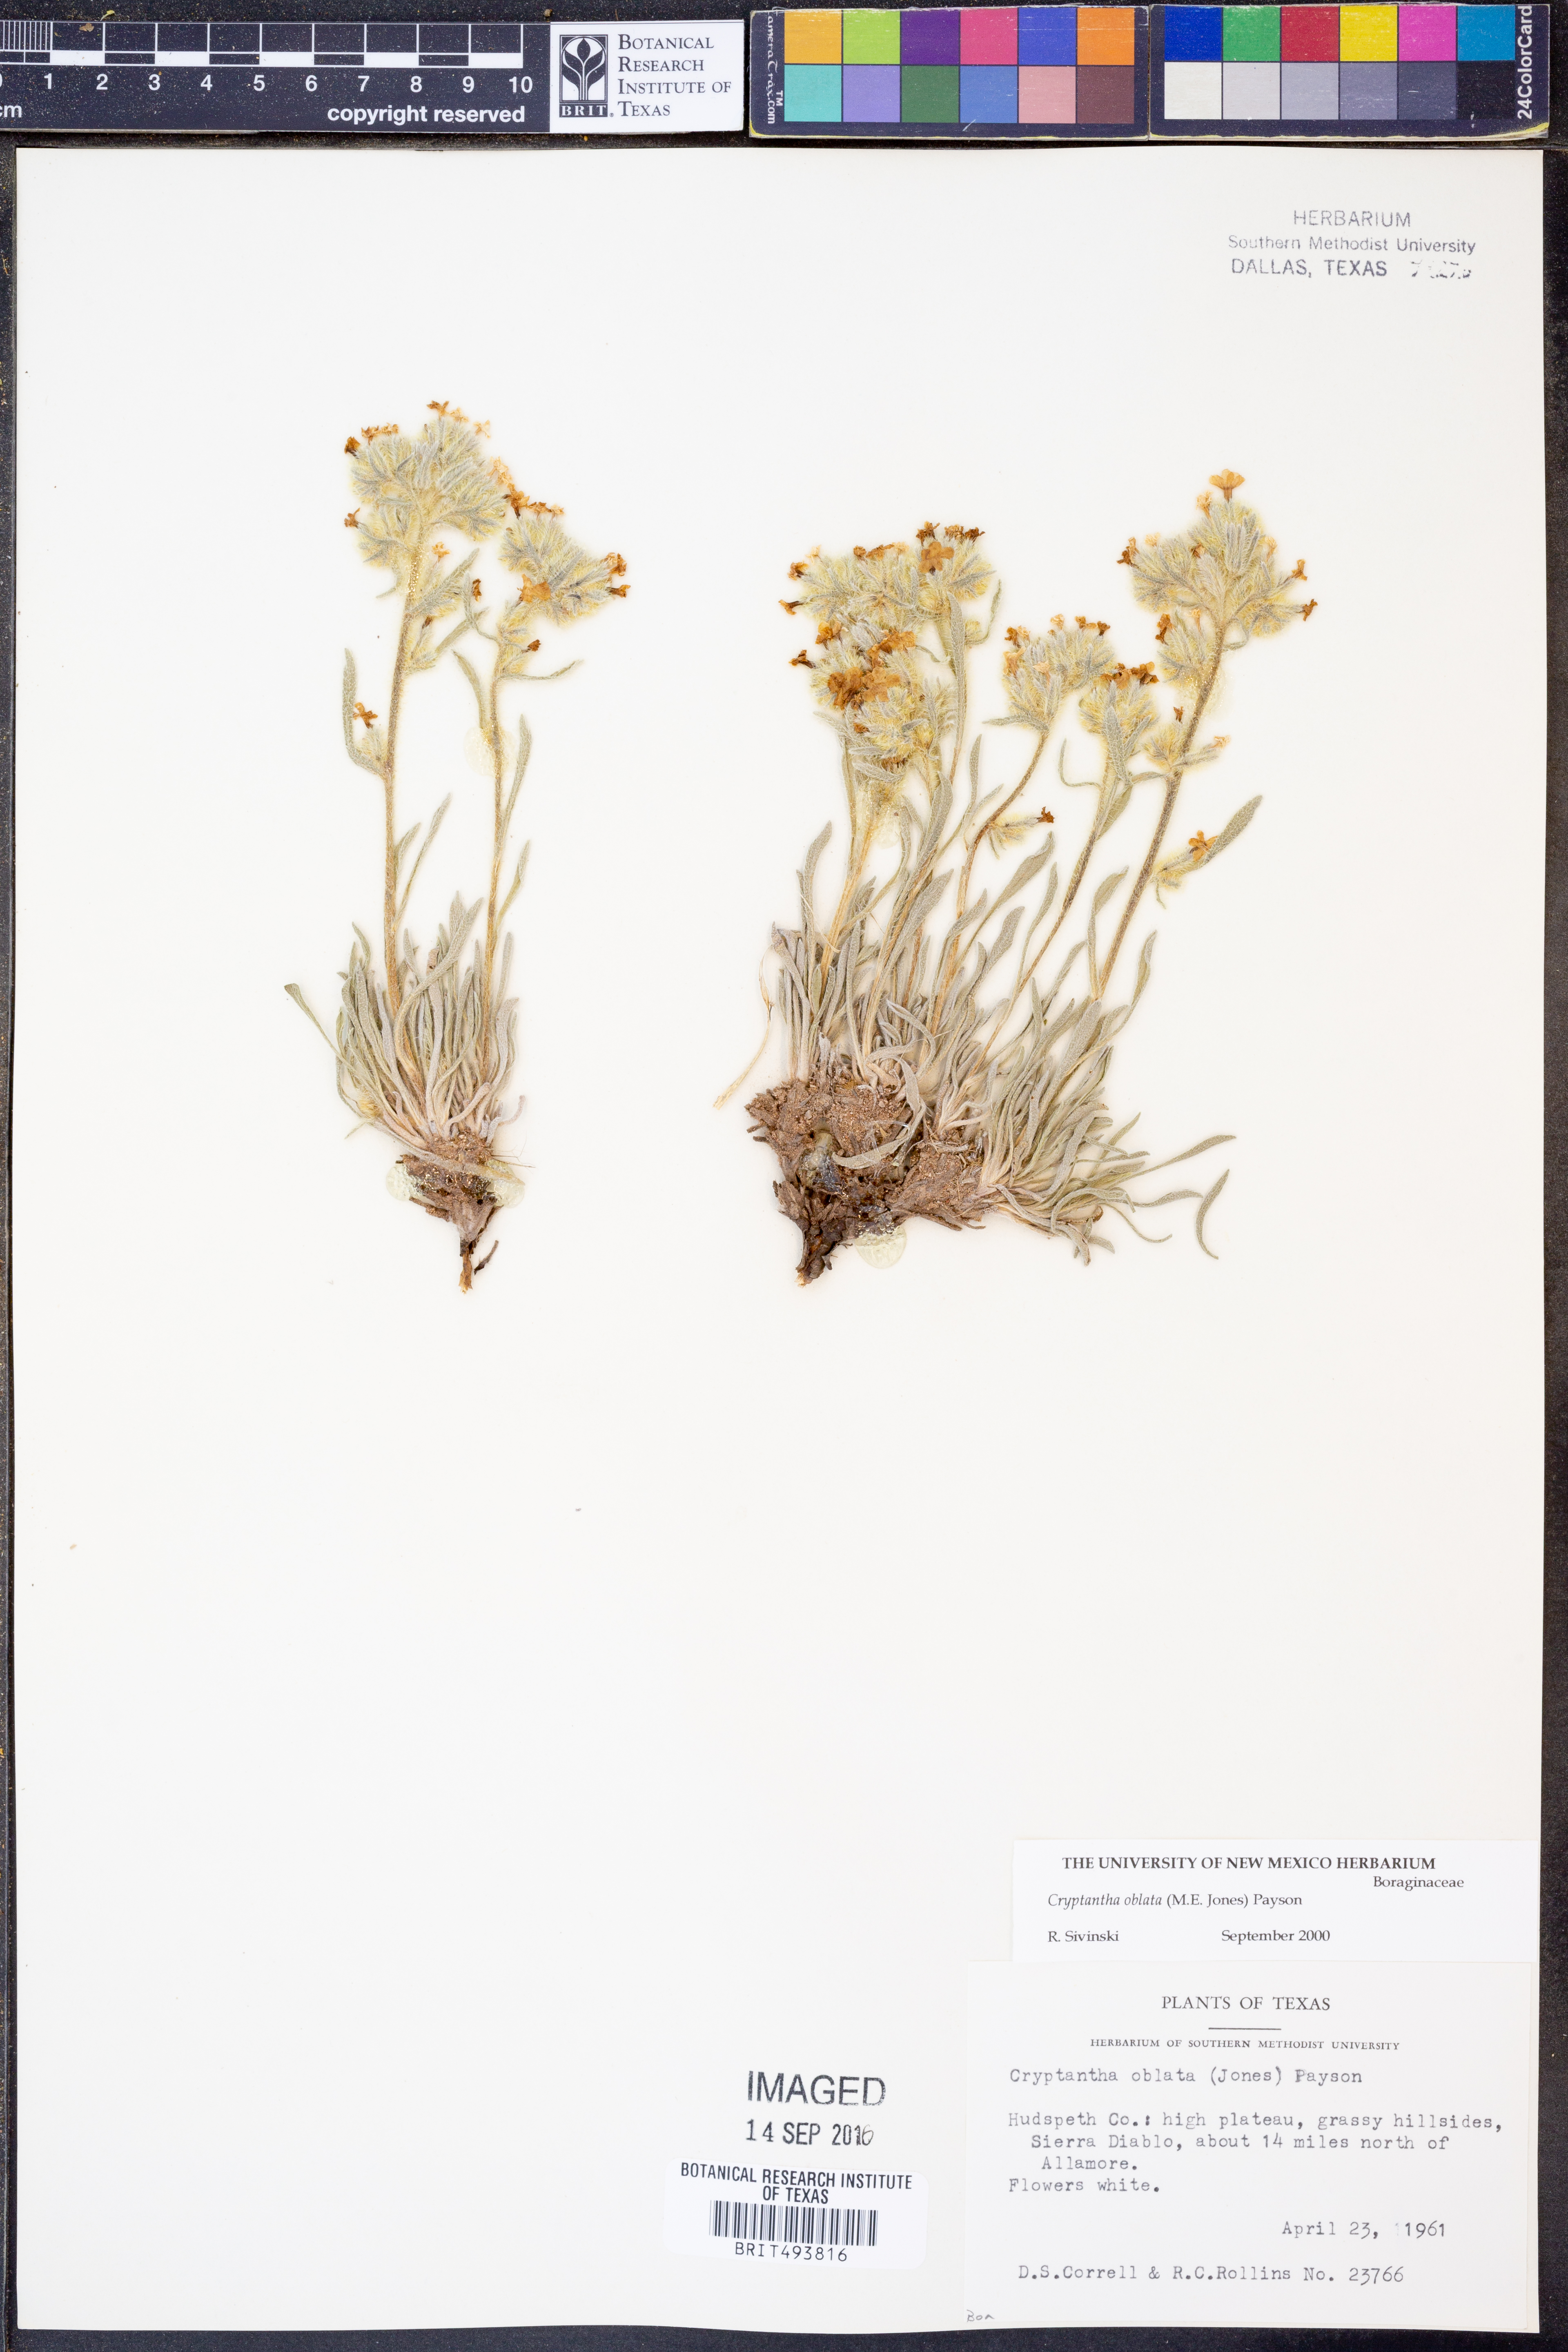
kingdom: Plantae
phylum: Tracheophyta
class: Magnoliopsida
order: Boraginales
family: Boraginaceae
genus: Oreocarya
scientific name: Oreocarya oblata
